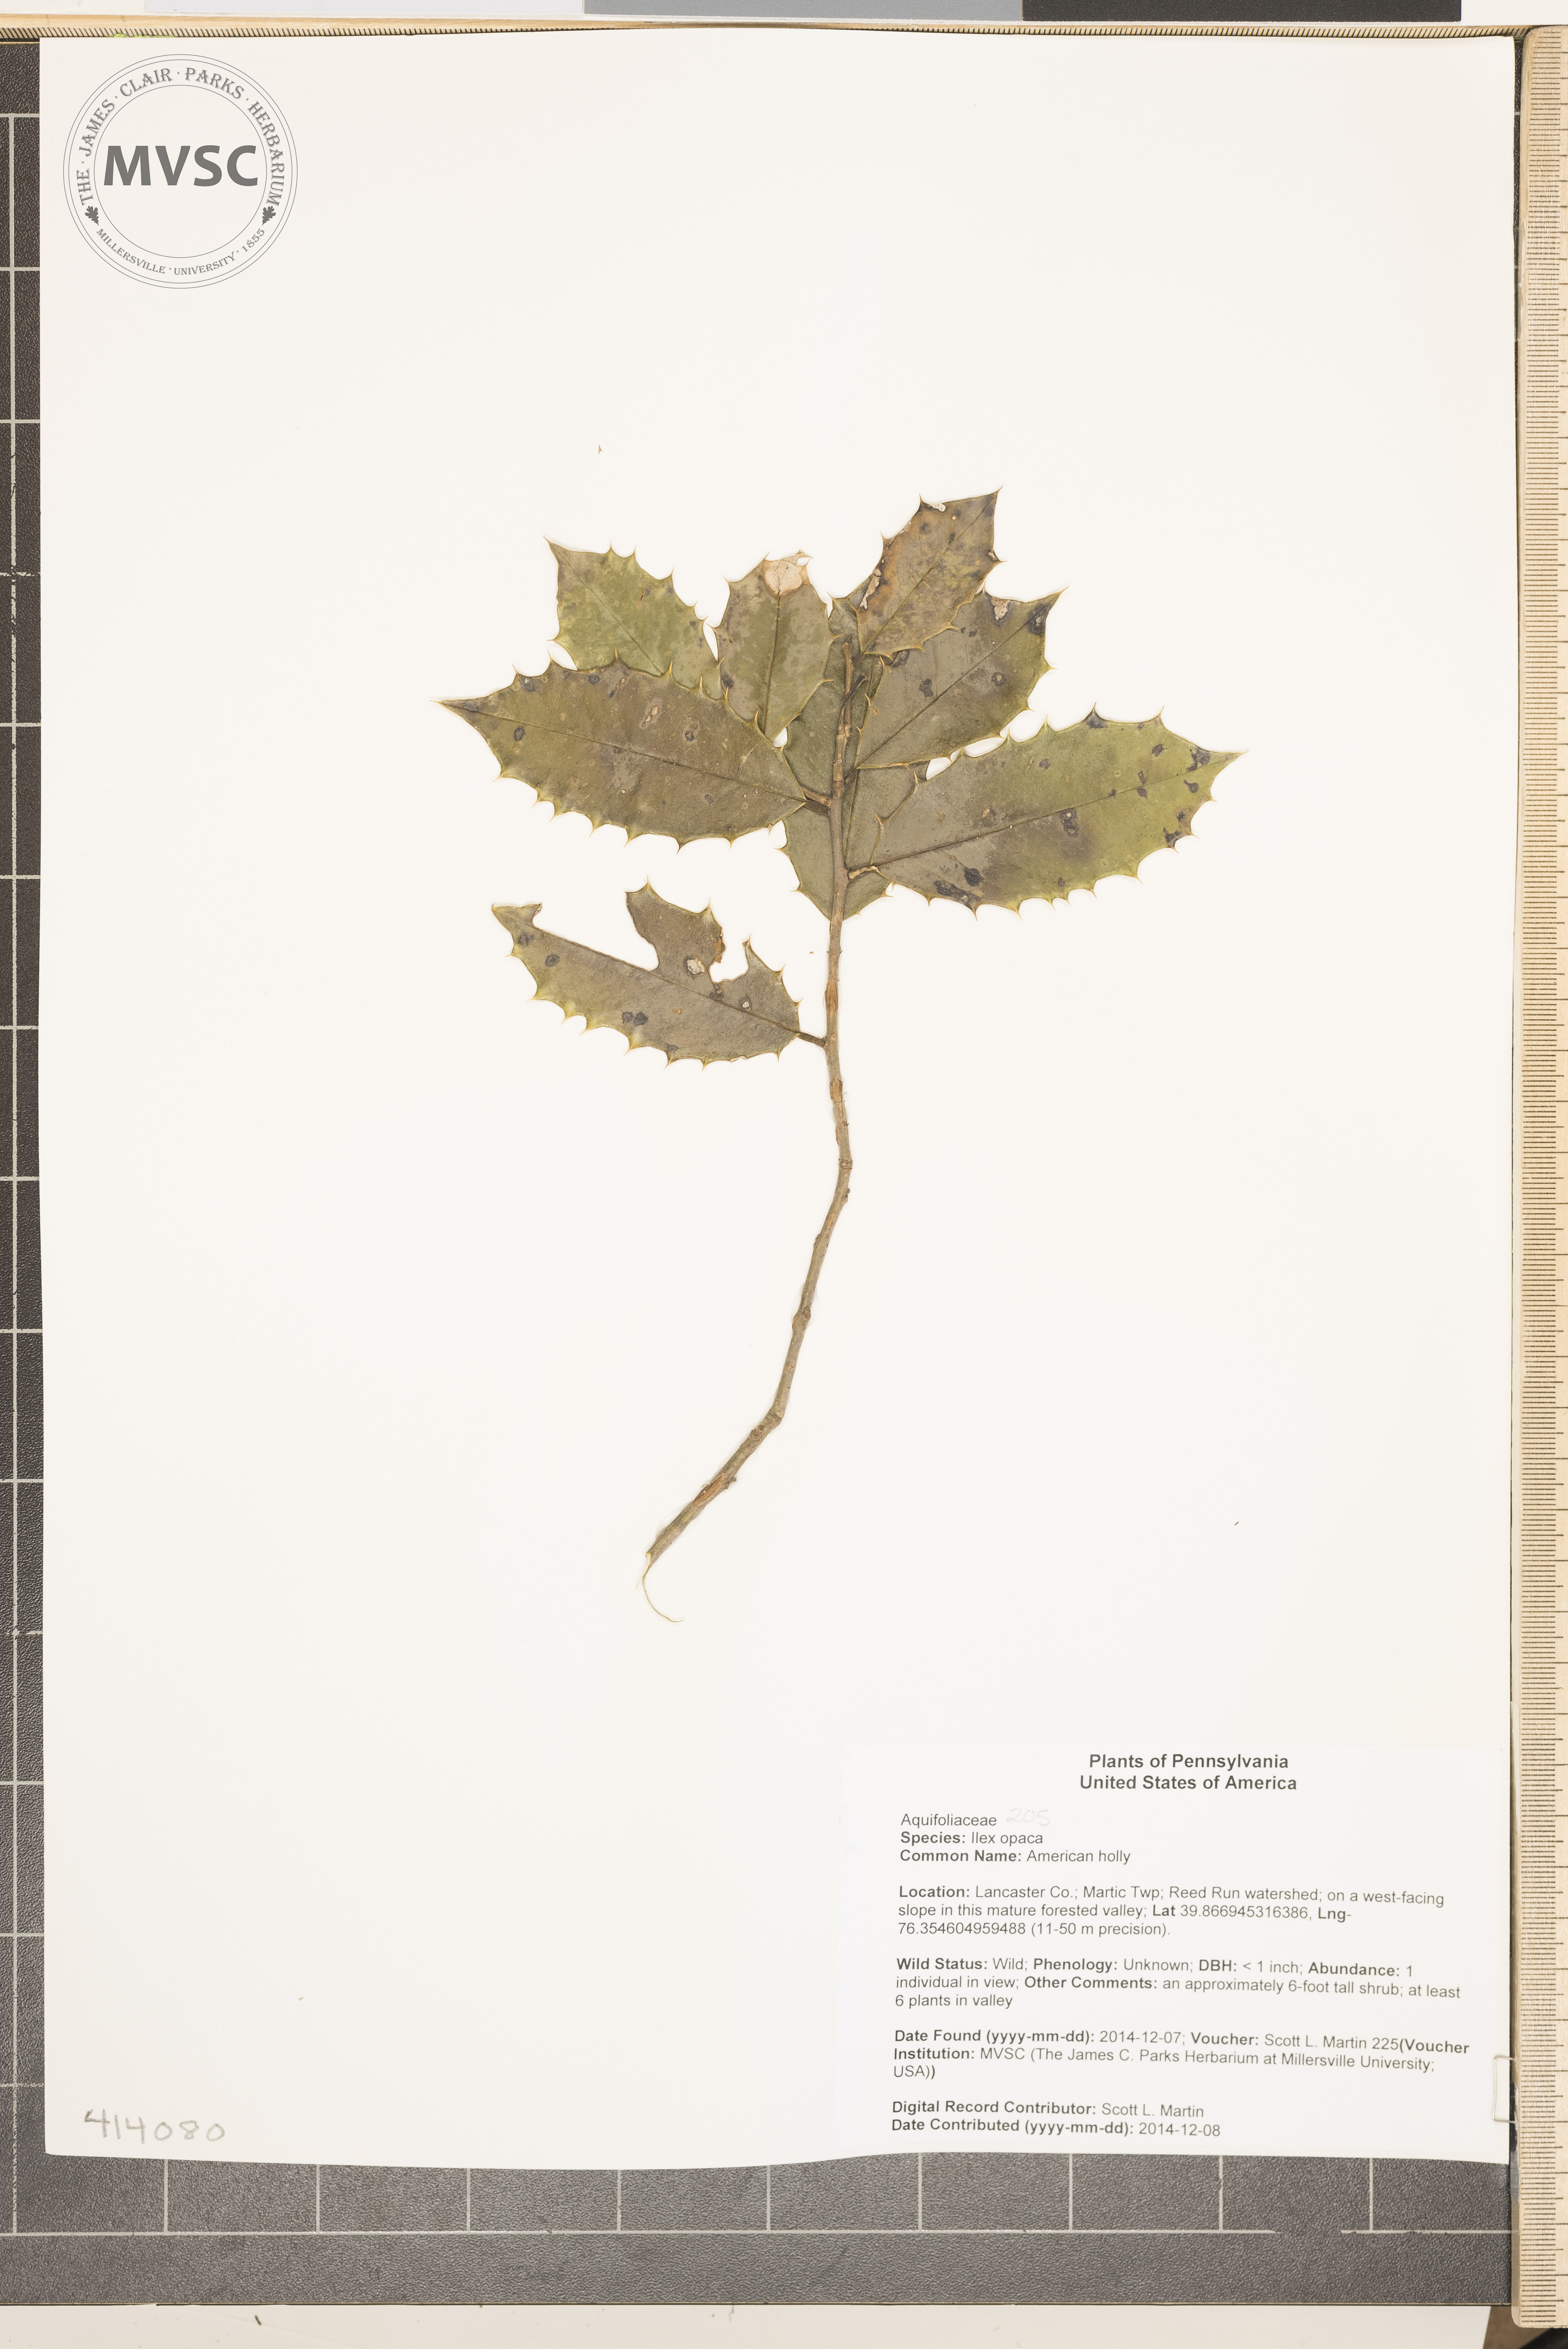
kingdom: Plantae
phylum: Tracheophyta
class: Magnoliopsida
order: Aquifoliales
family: Aquifoliaceae
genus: Ilex
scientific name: Ilex opaca
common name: American holly
